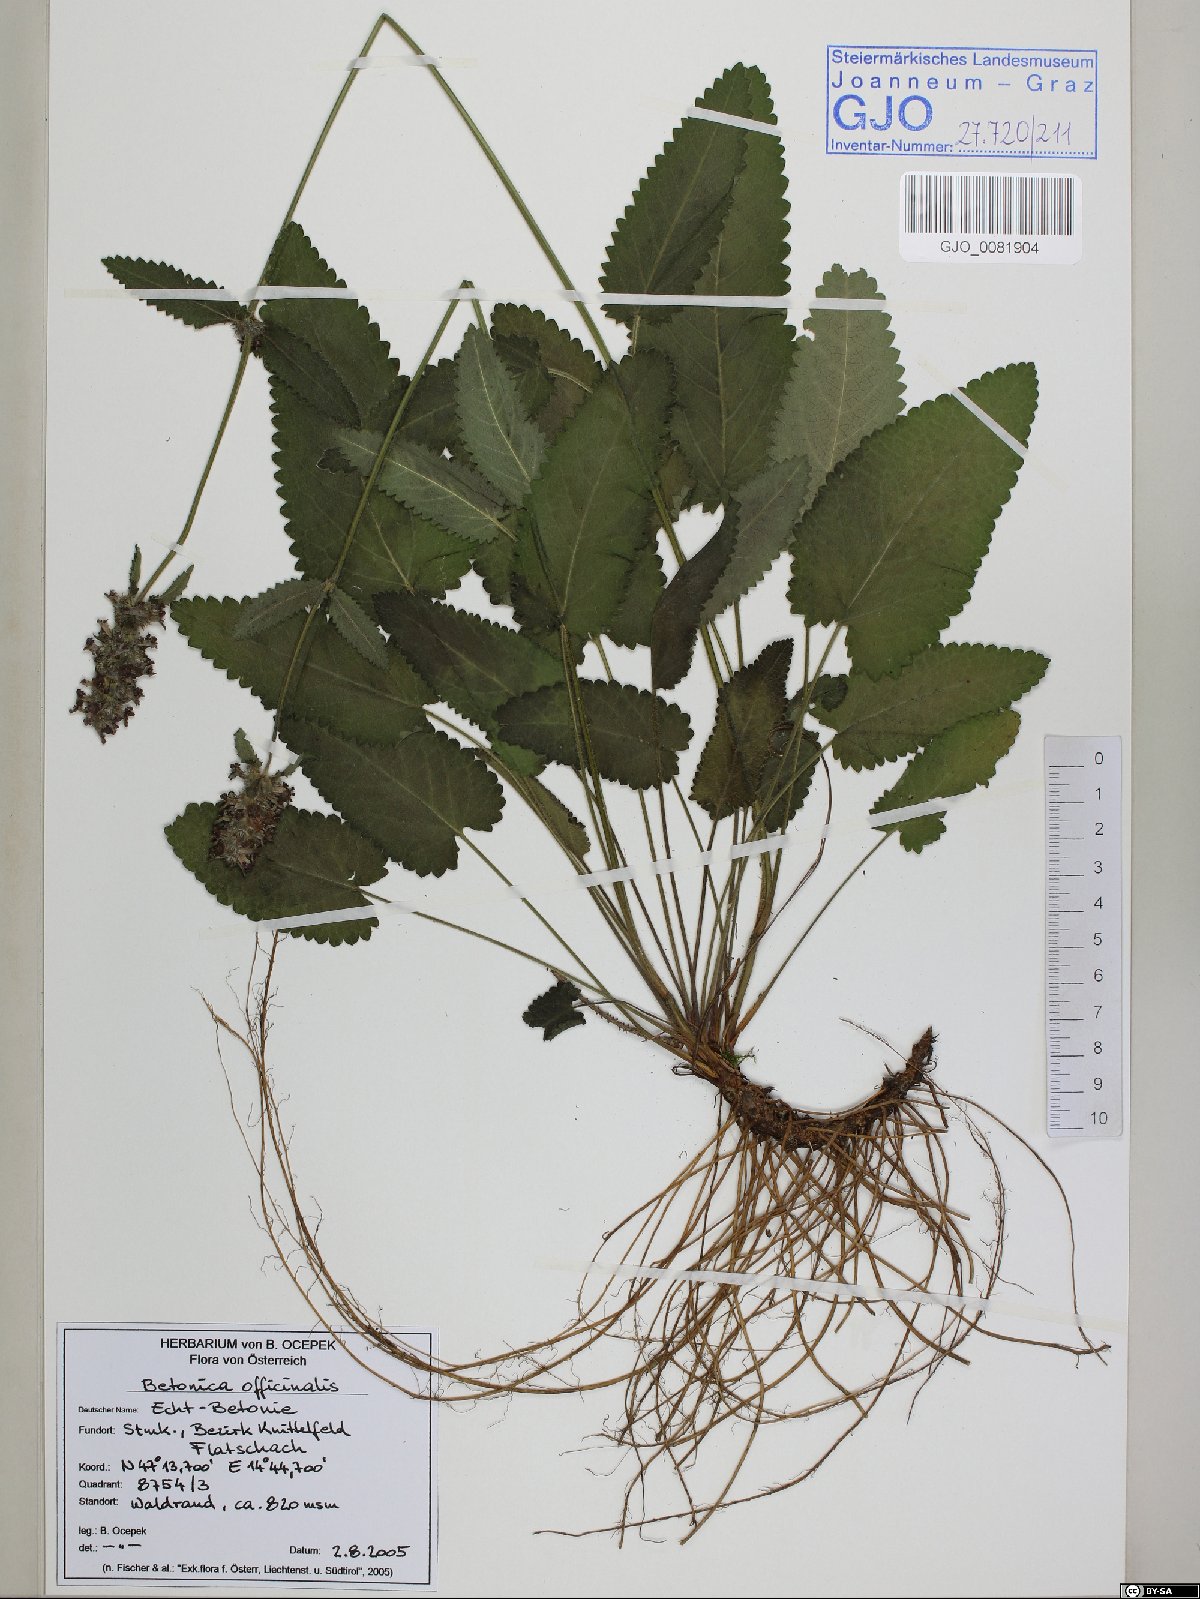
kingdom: Plantae
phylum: Tracheophyta
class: Magnoliopsida
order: Lamiales
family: Lamiaceae
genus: Betonica
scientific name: Betonica officinalis
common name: Bishop's-wort
